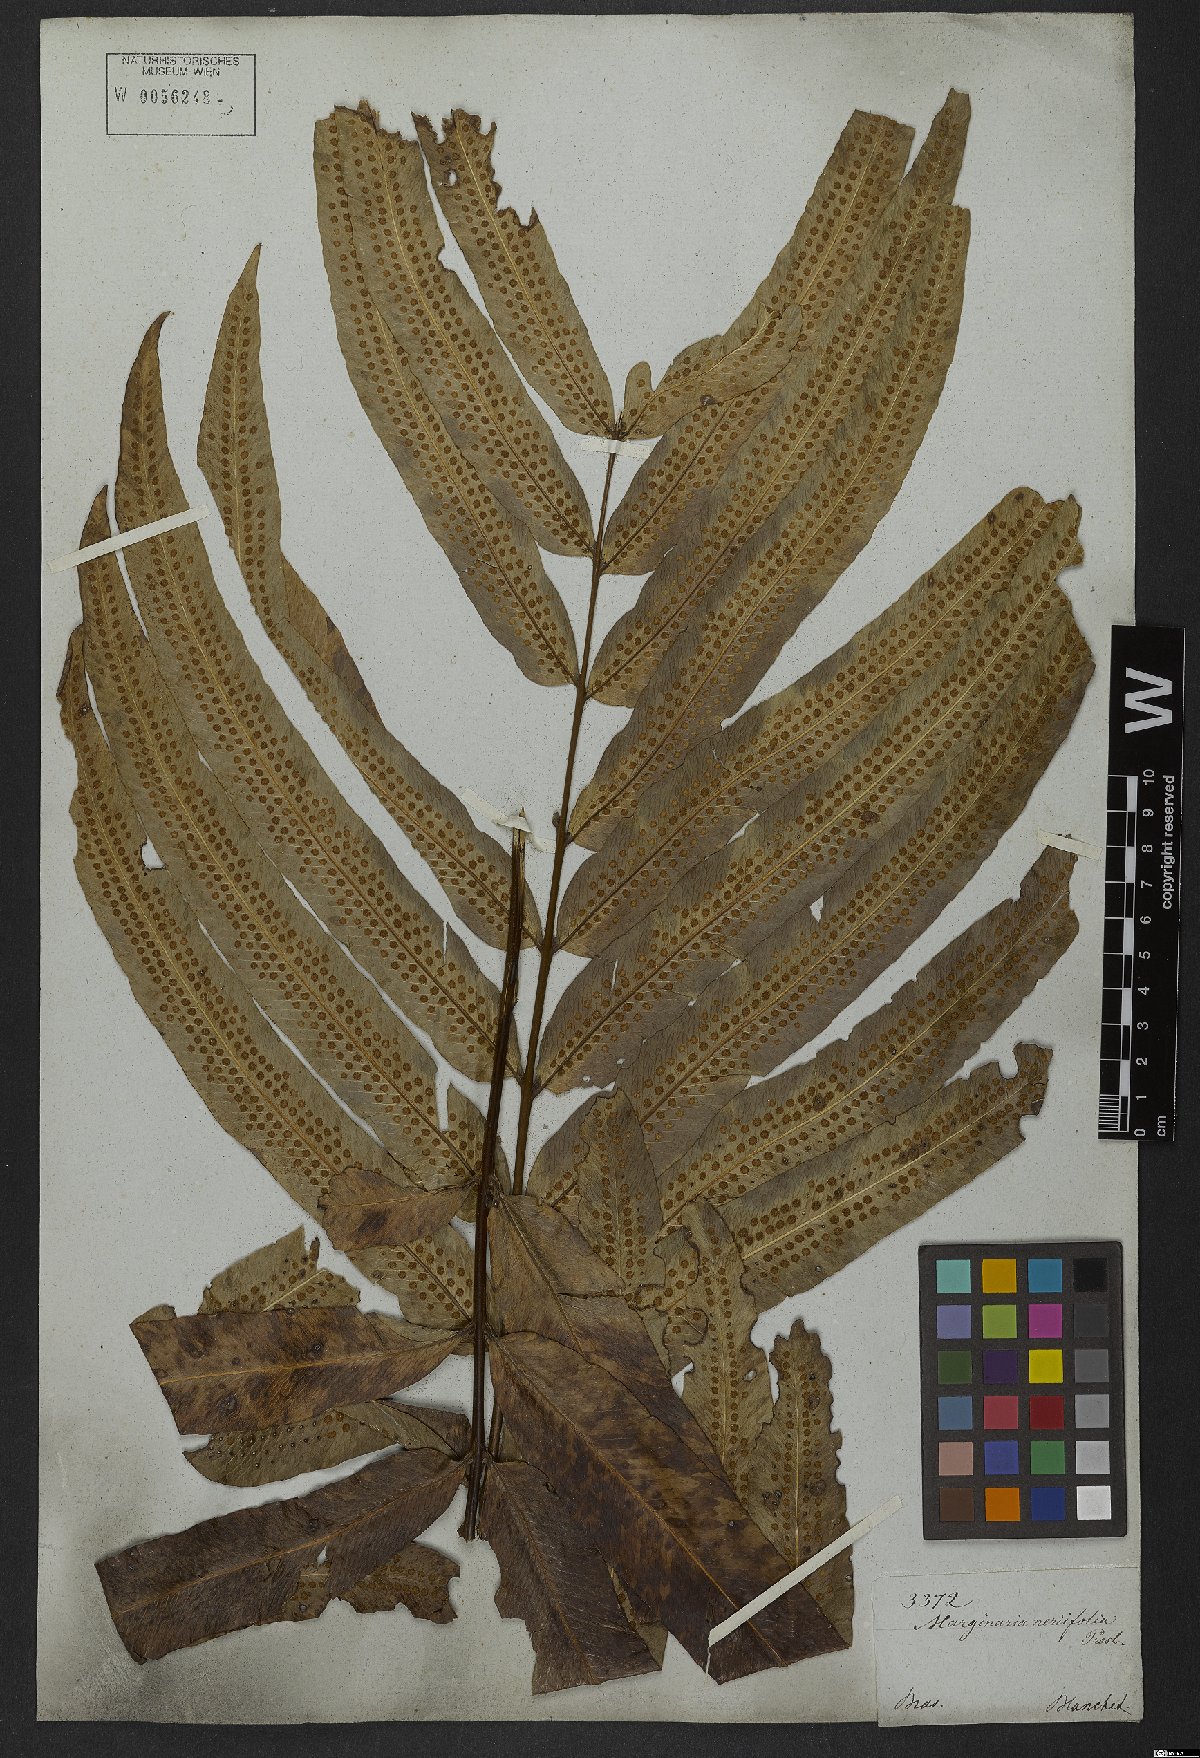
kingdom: Plantae
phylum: Tracheophyta
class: Polypodiopsida
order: Polypodiales
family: Polypodiaceae
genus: Serpocaulon
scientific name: Serpocaulon triseriale
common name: Angle-vein fern
